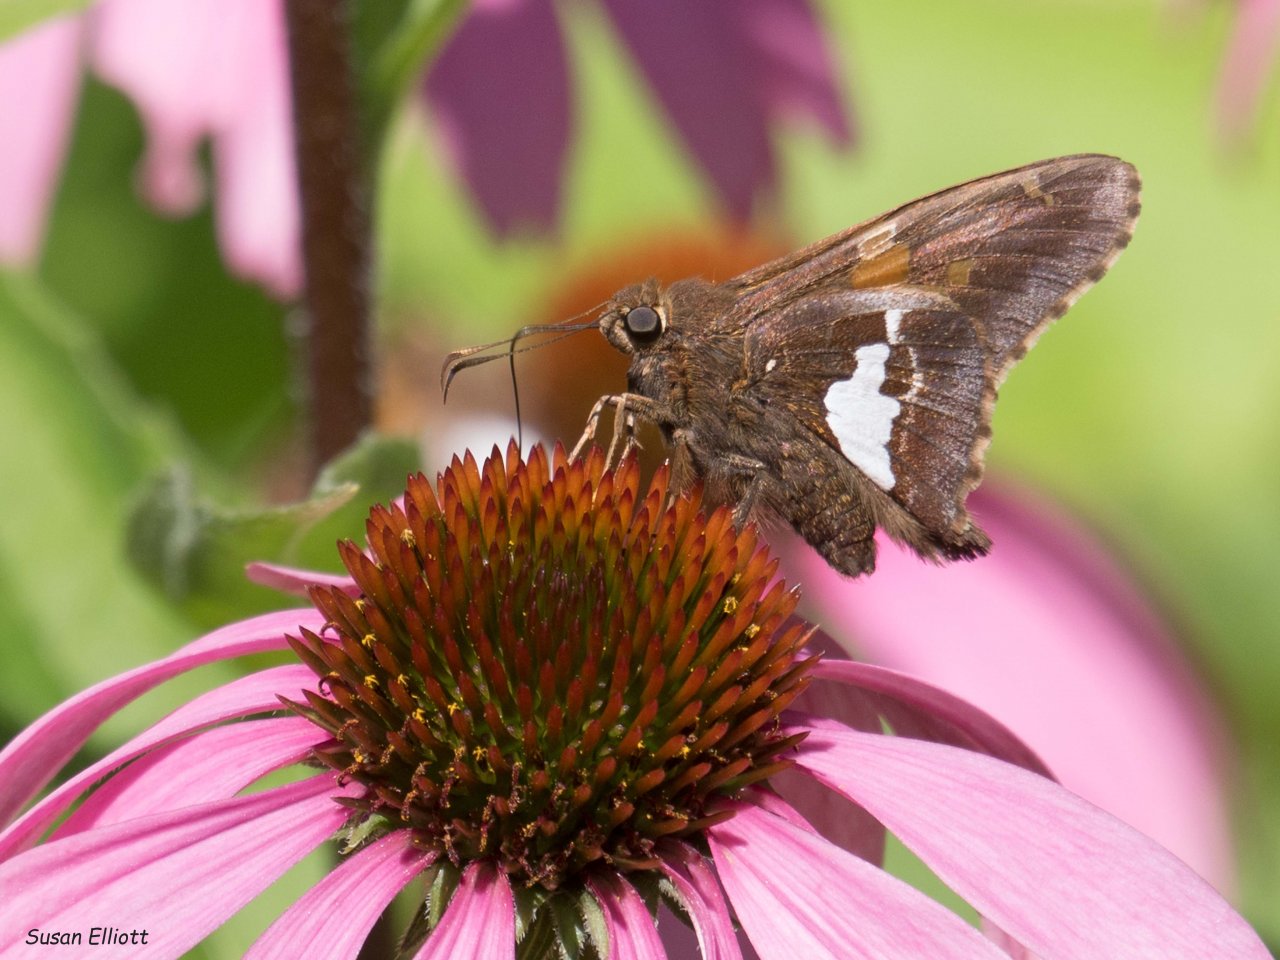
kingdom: Animalia
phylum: Arthropoda
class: Insecta
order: Lepidoptera
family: Hesperiidae
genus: Epargyreus
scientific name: Epargyreus clarus
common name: Silver-spotted Skipper
